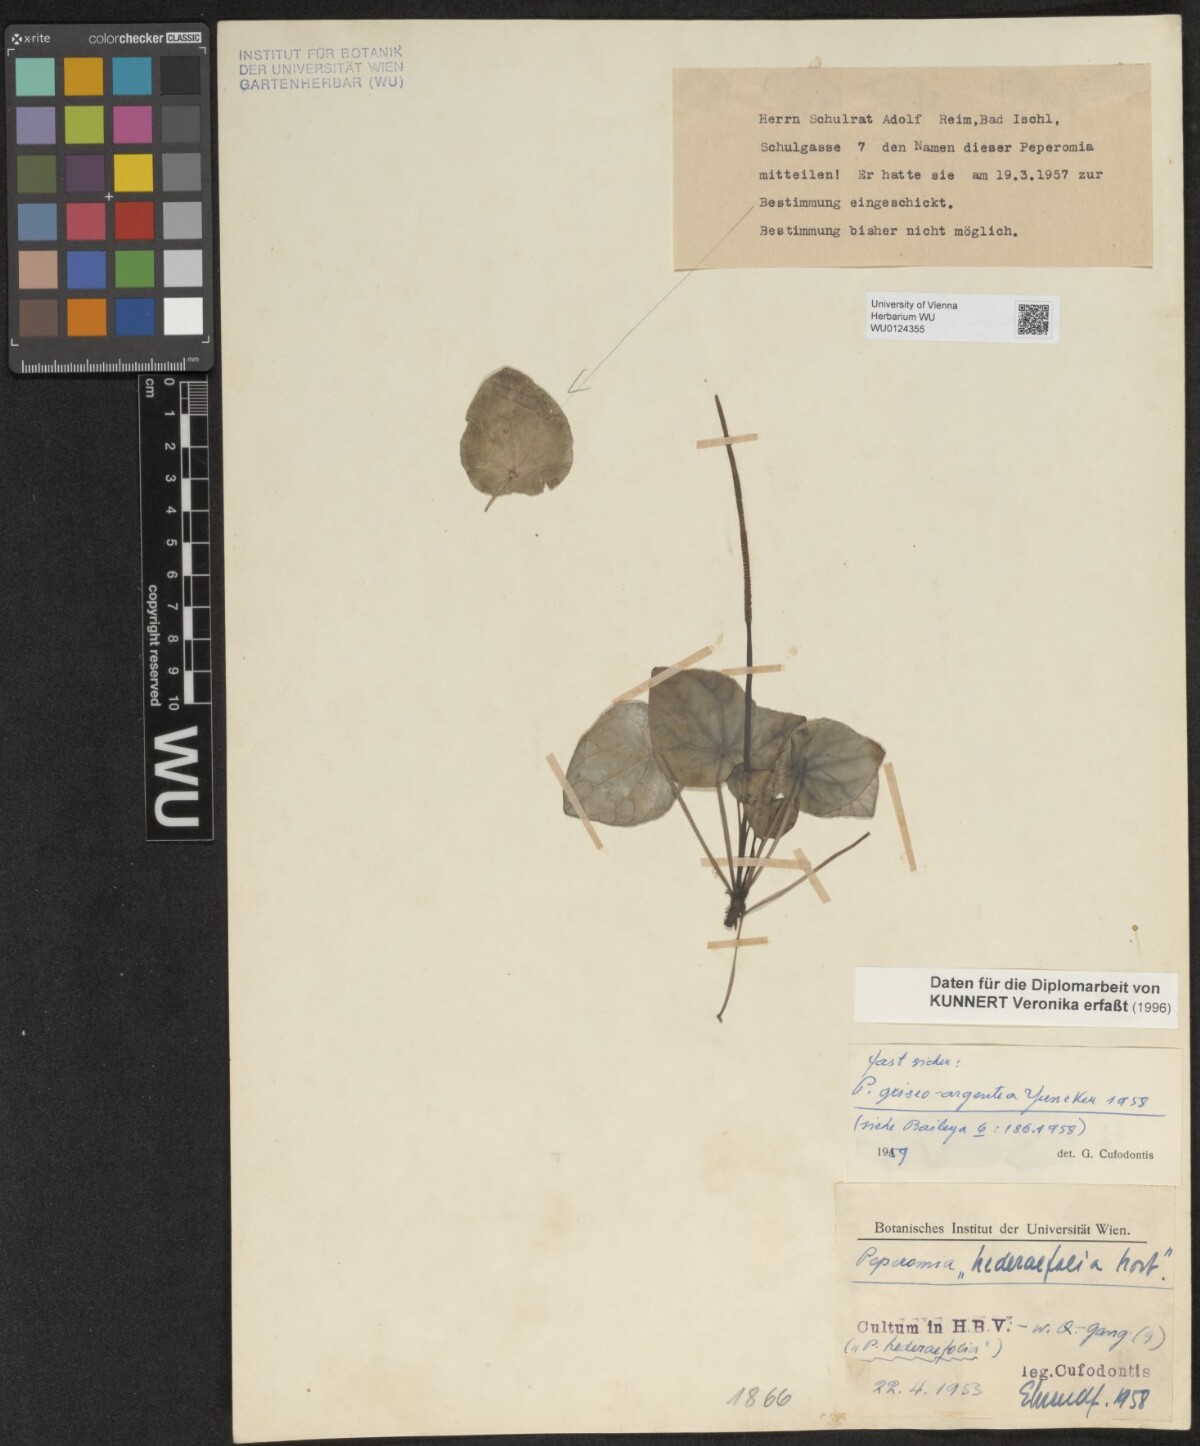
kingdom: Plantae
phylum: Tracheophyta
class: Magnoliopsida
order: Piperales
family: Piperaceae
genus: Peperomia
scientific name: Peperomia griseoargentea
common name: Platinum pepper
